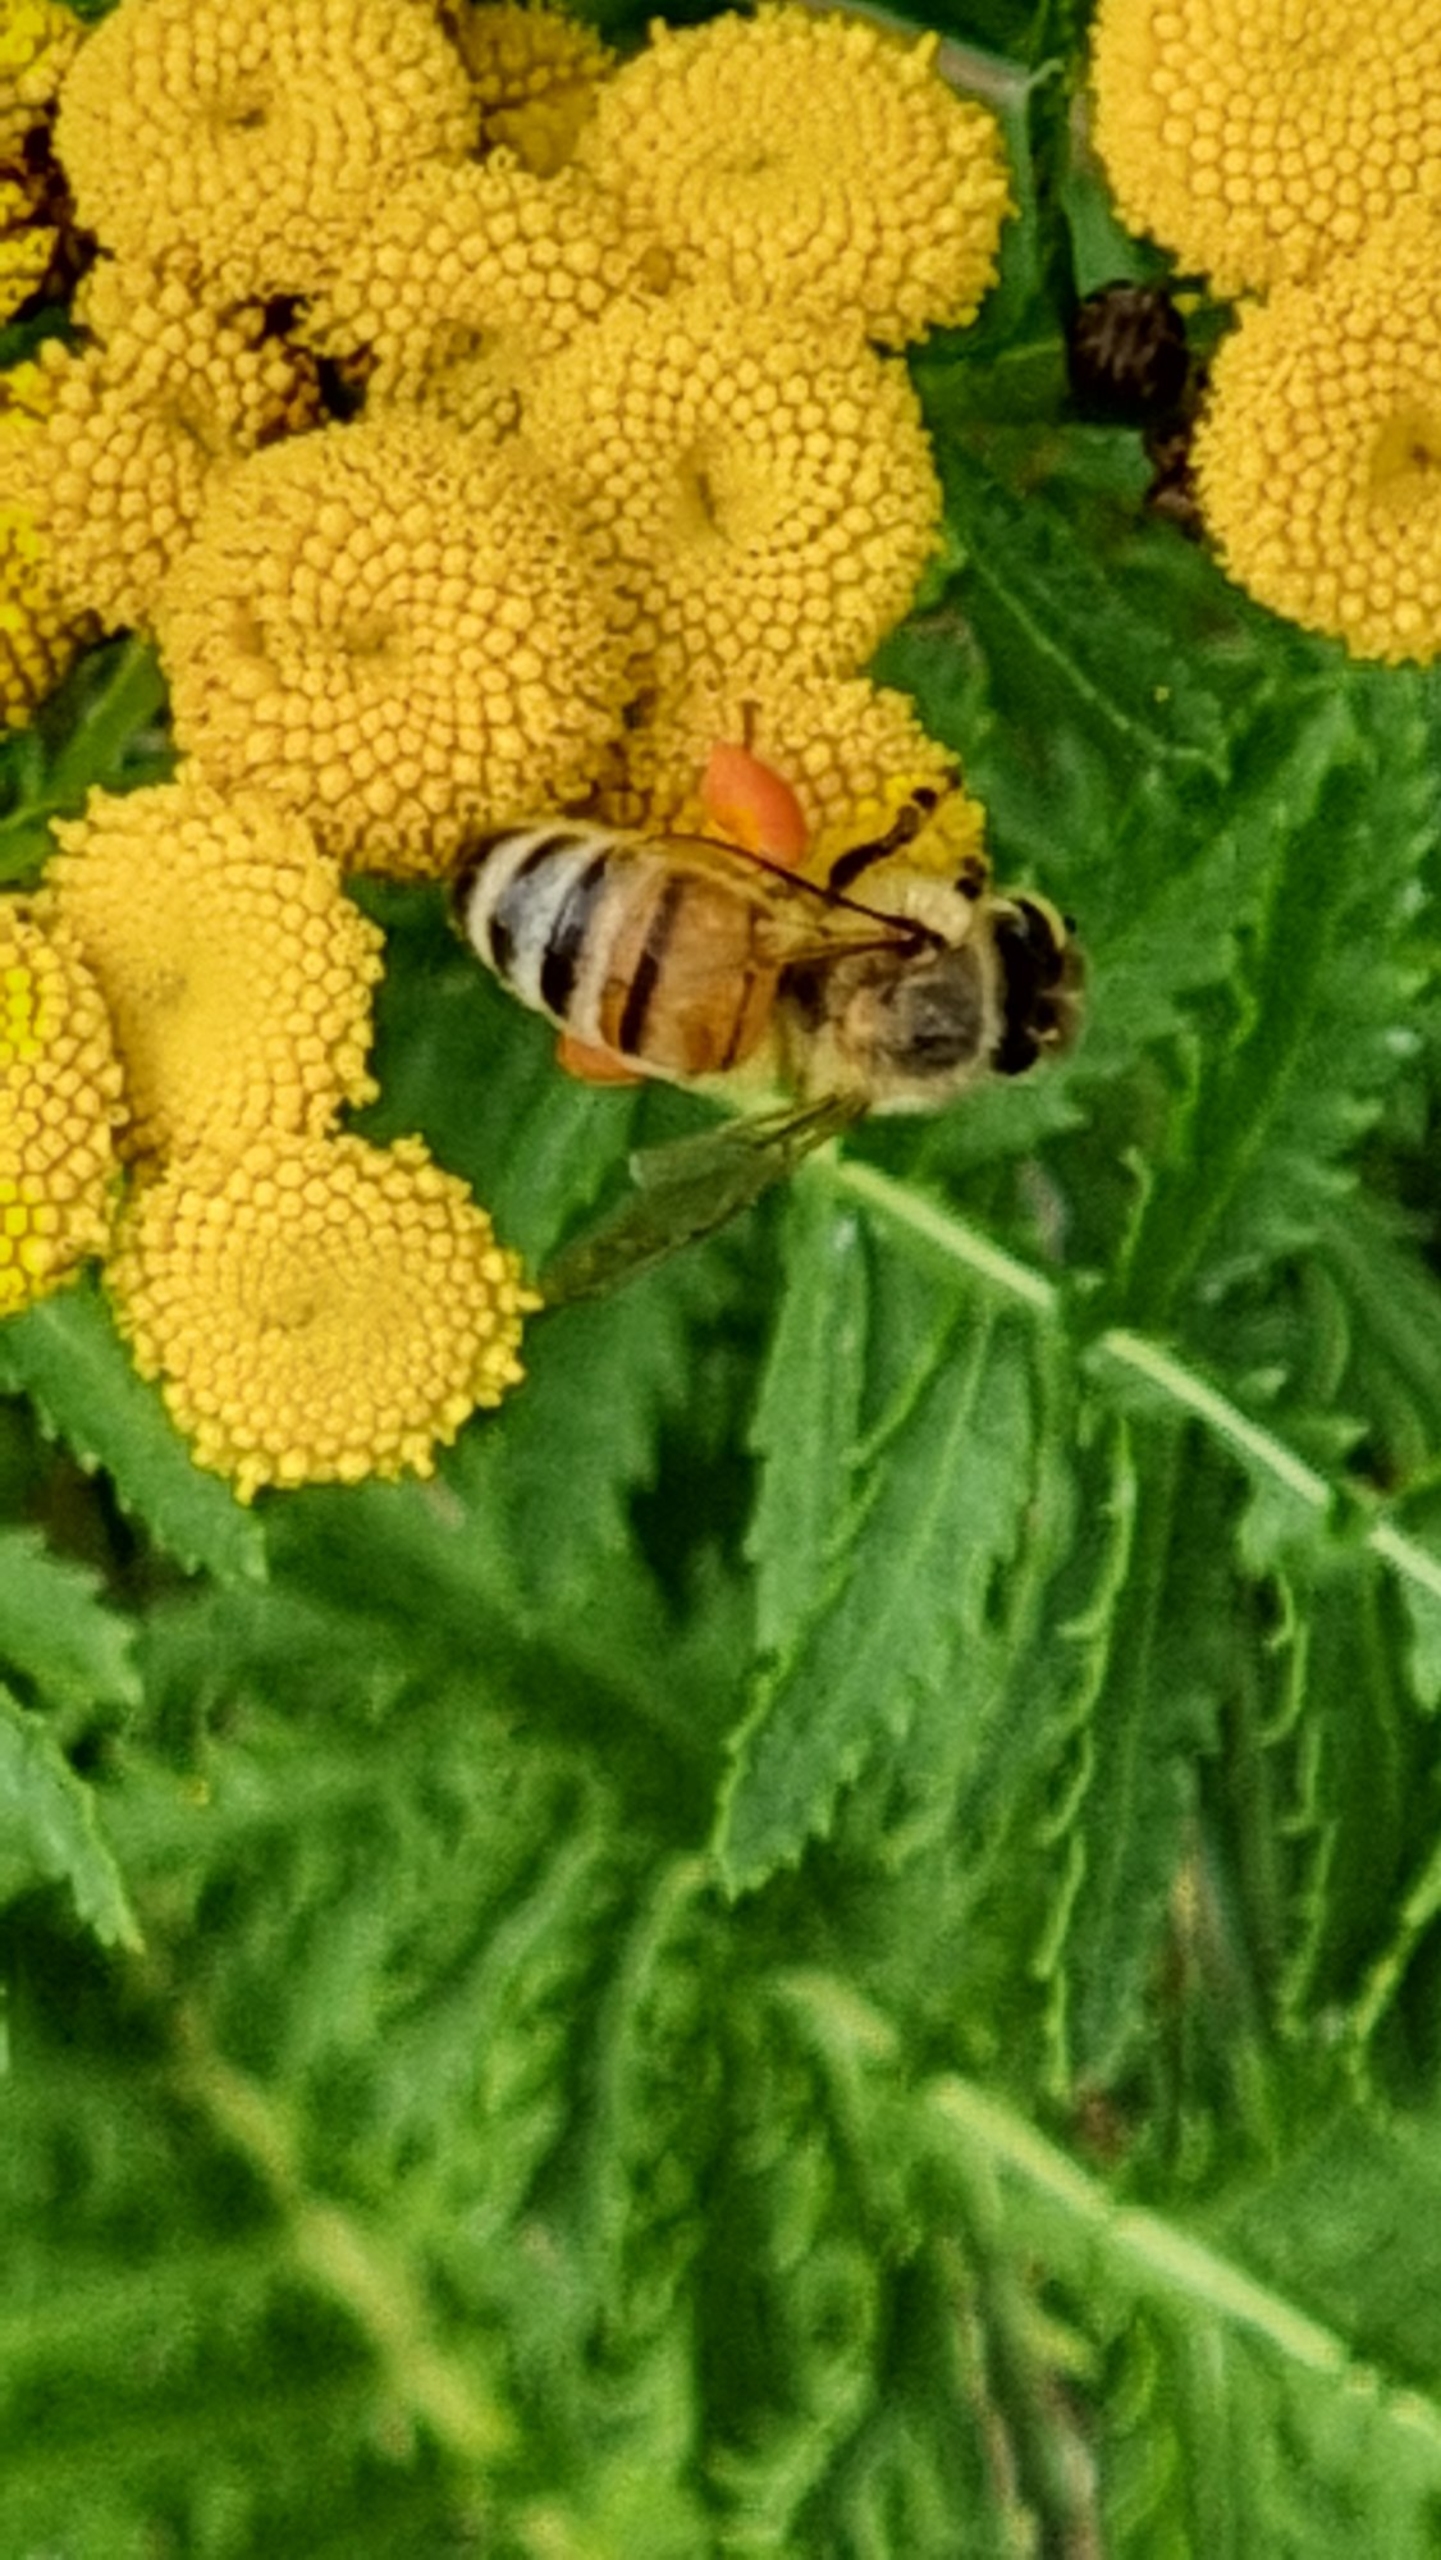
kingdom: Animalia
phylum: Arthropoda
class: Insecta
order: Hymenoptera
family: Apidae
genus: Apis
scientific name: Apis mellifera
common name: Honningbi
